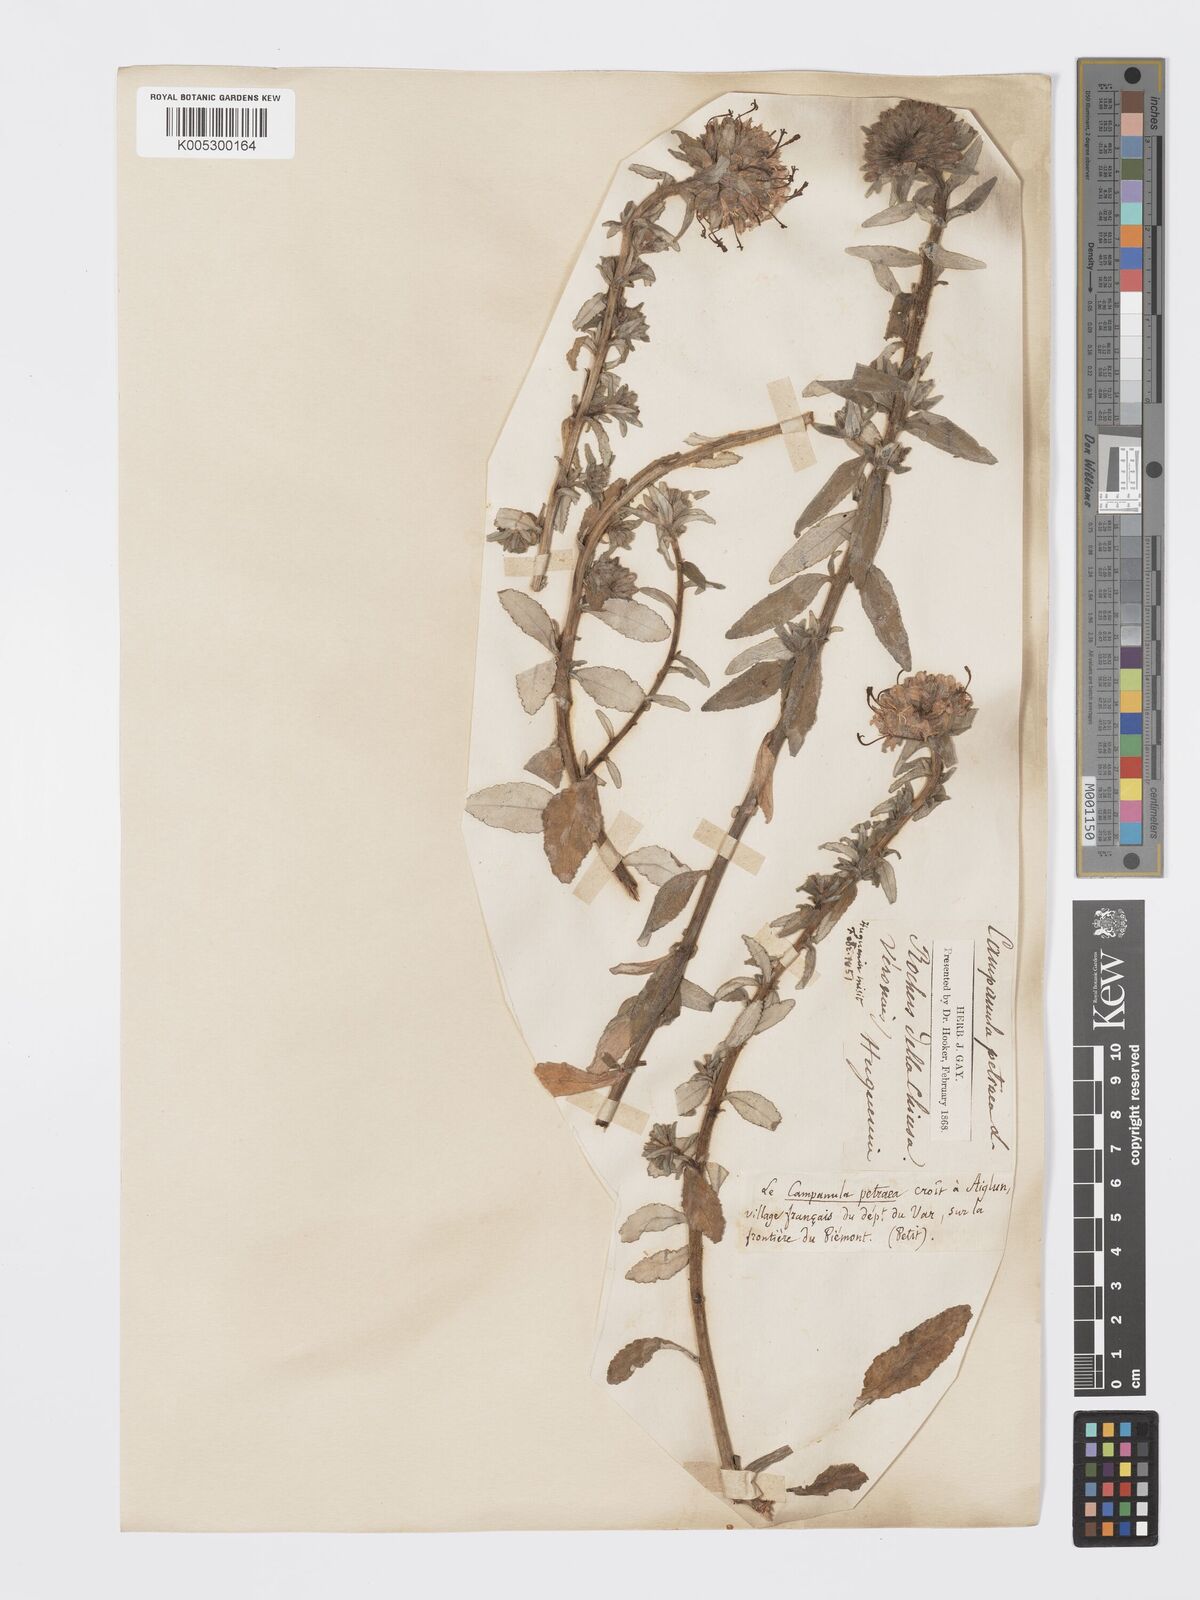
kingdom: Plantae
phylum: Tracheophyta
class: Magnoliopsida
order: Asterales
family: Campanulaceae
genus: Campanula
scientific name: Campanula spicata
